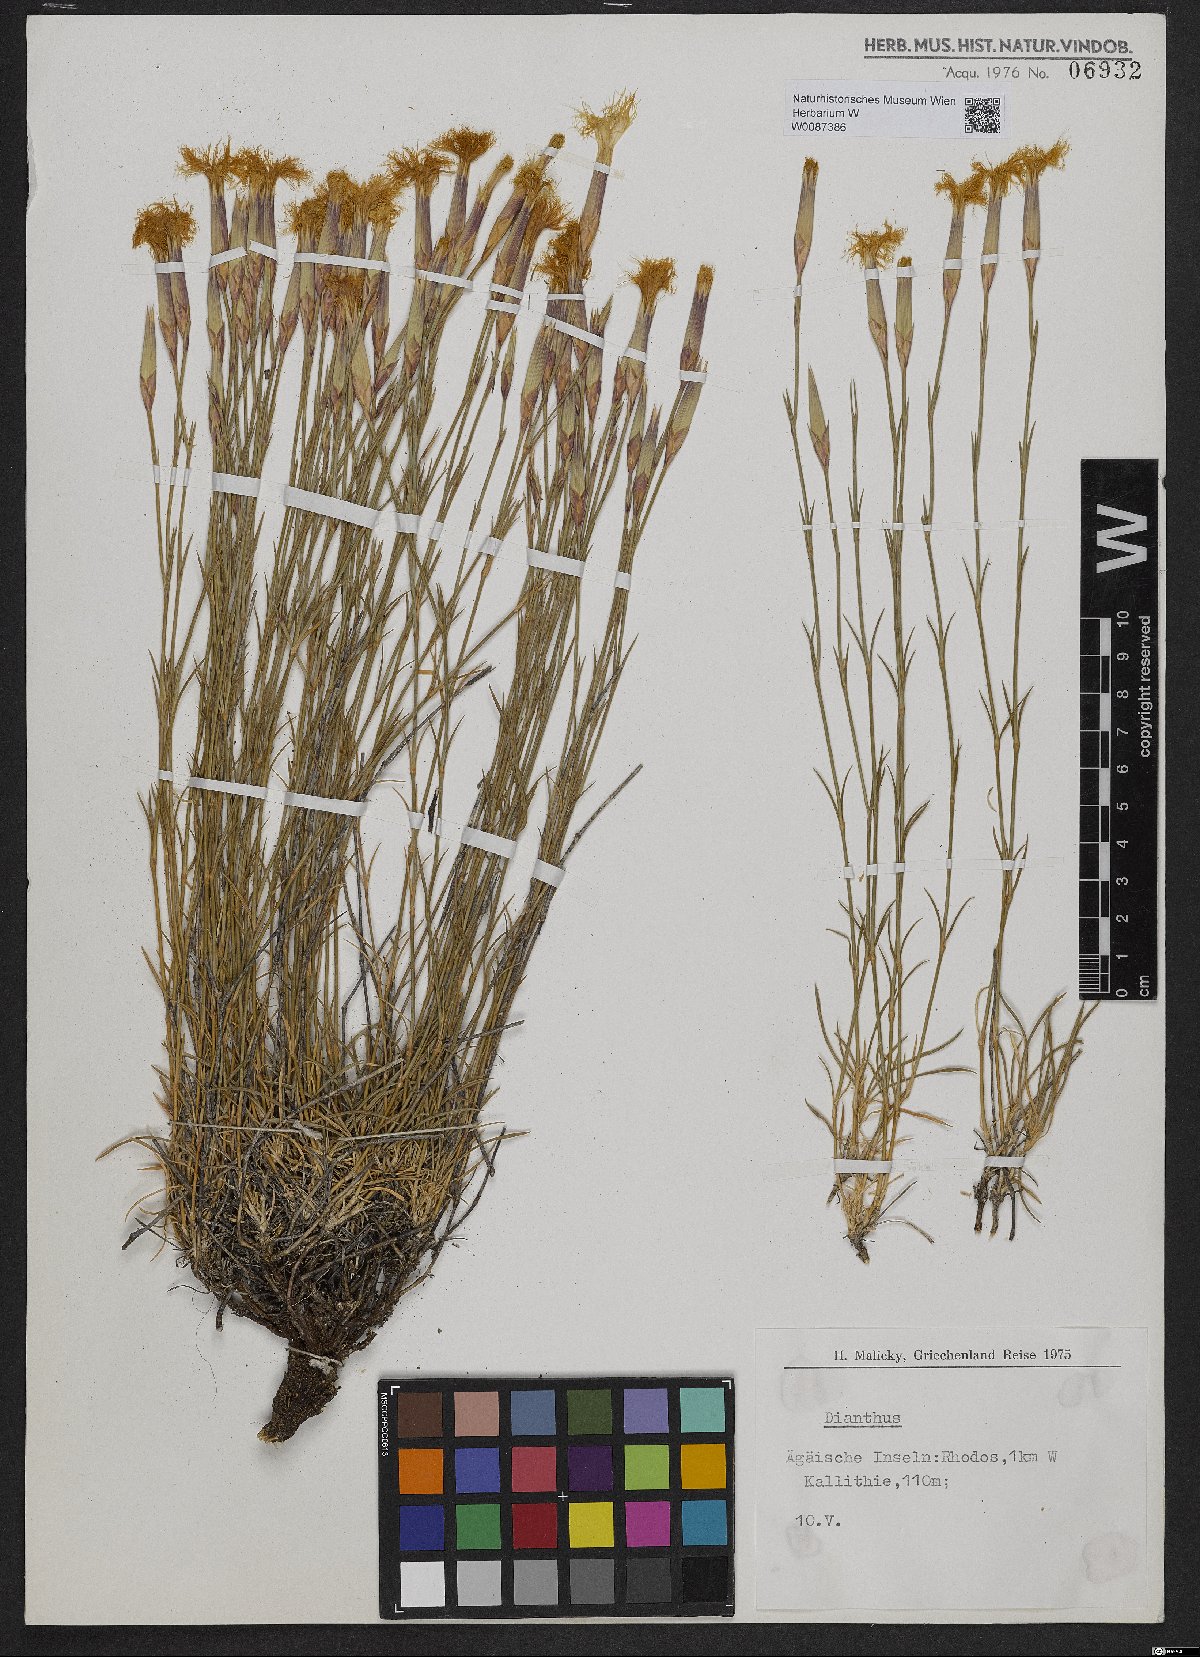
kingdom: Plantae
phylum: Tracheophyta
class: Magnoliopsida
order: Caryophyllales
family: Caryophyllaceae
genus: Dianthus
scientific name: Dianthus
